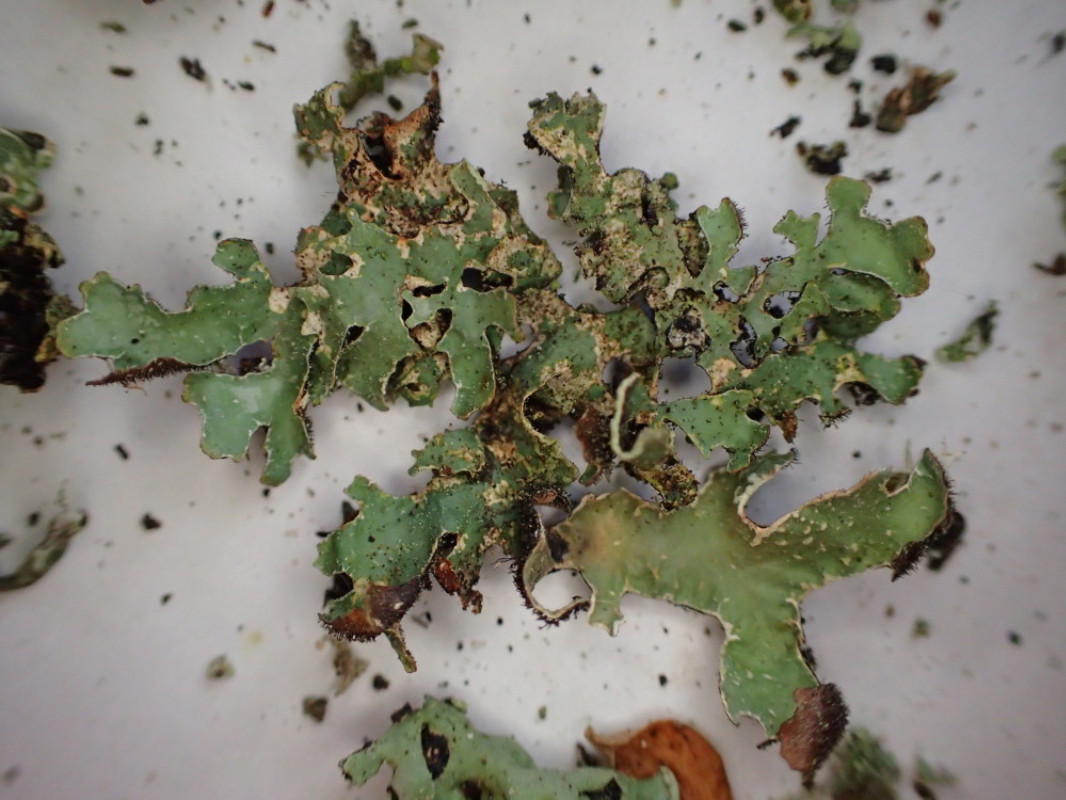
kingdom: Fungi
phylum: Ascomycota
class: Lecanoromycetes
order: Lecanorales
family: Parmeliaceae
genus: Parmelia
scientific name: Parmelia sulcata
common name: rynket skållav
